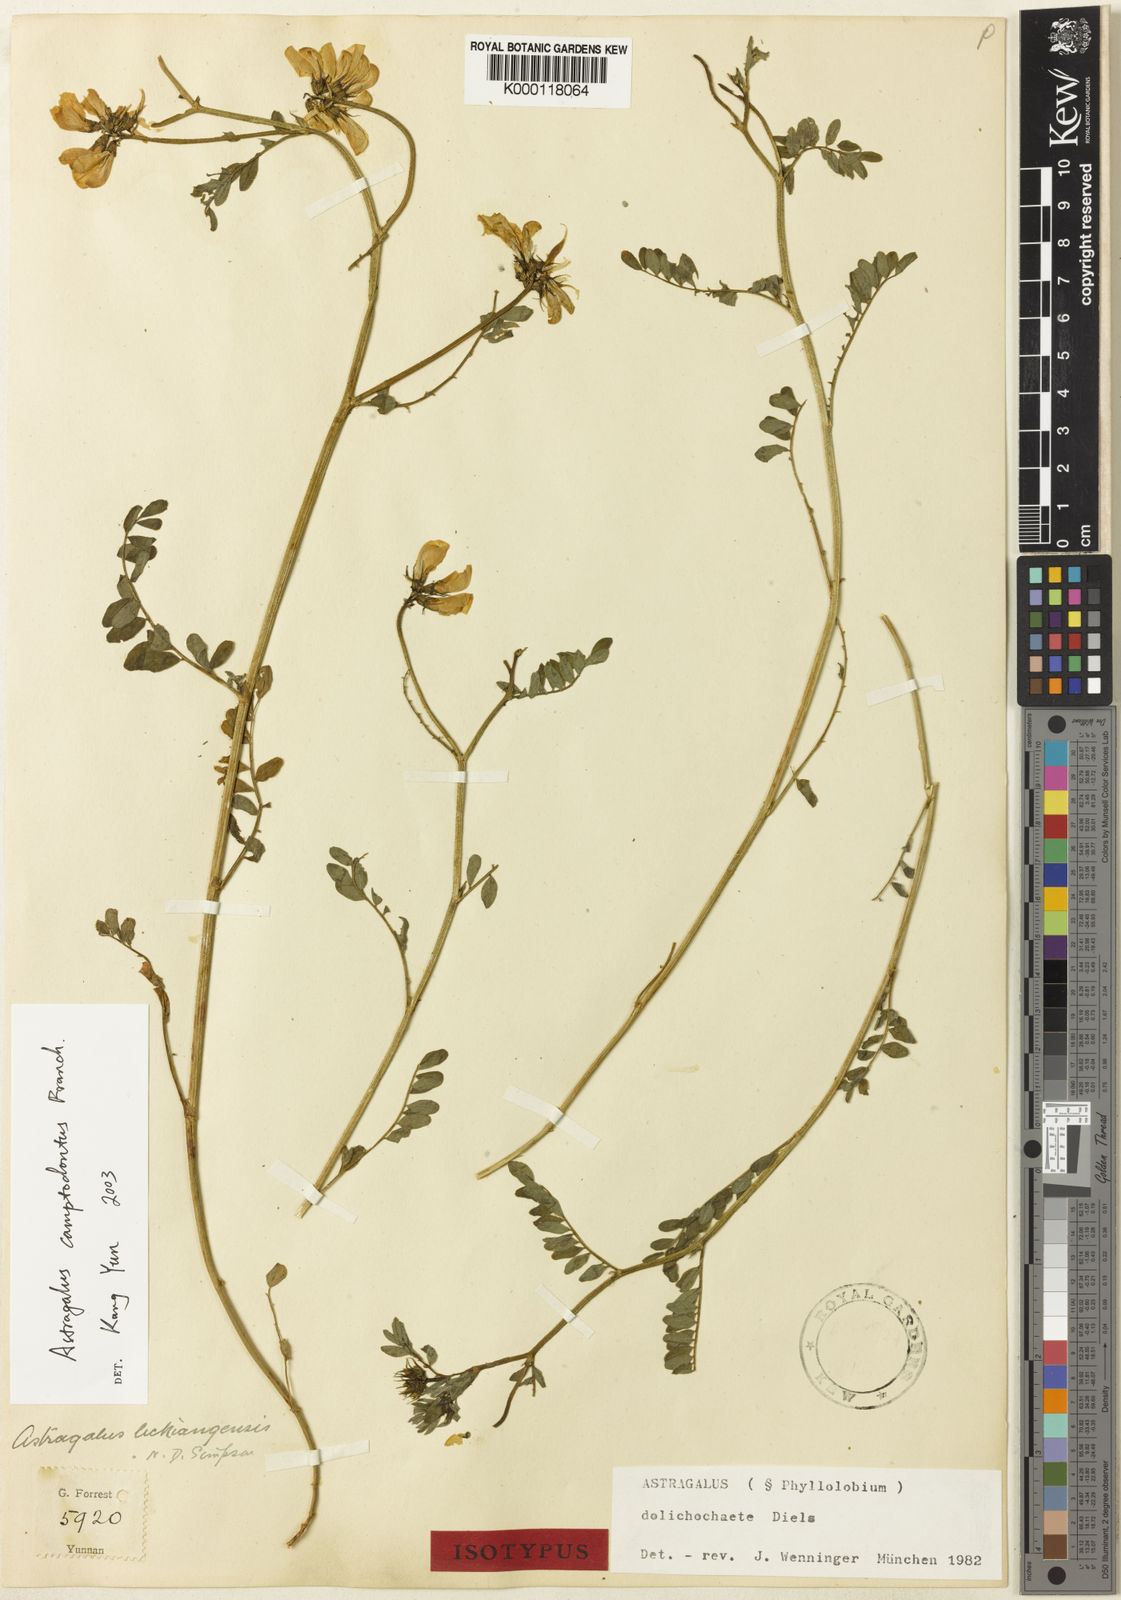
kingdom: Plantae
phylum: Tracheophyta
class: Magnoliopsida
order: Fabales
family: Fabaceae
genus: Astragalus
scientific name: Astragalus
